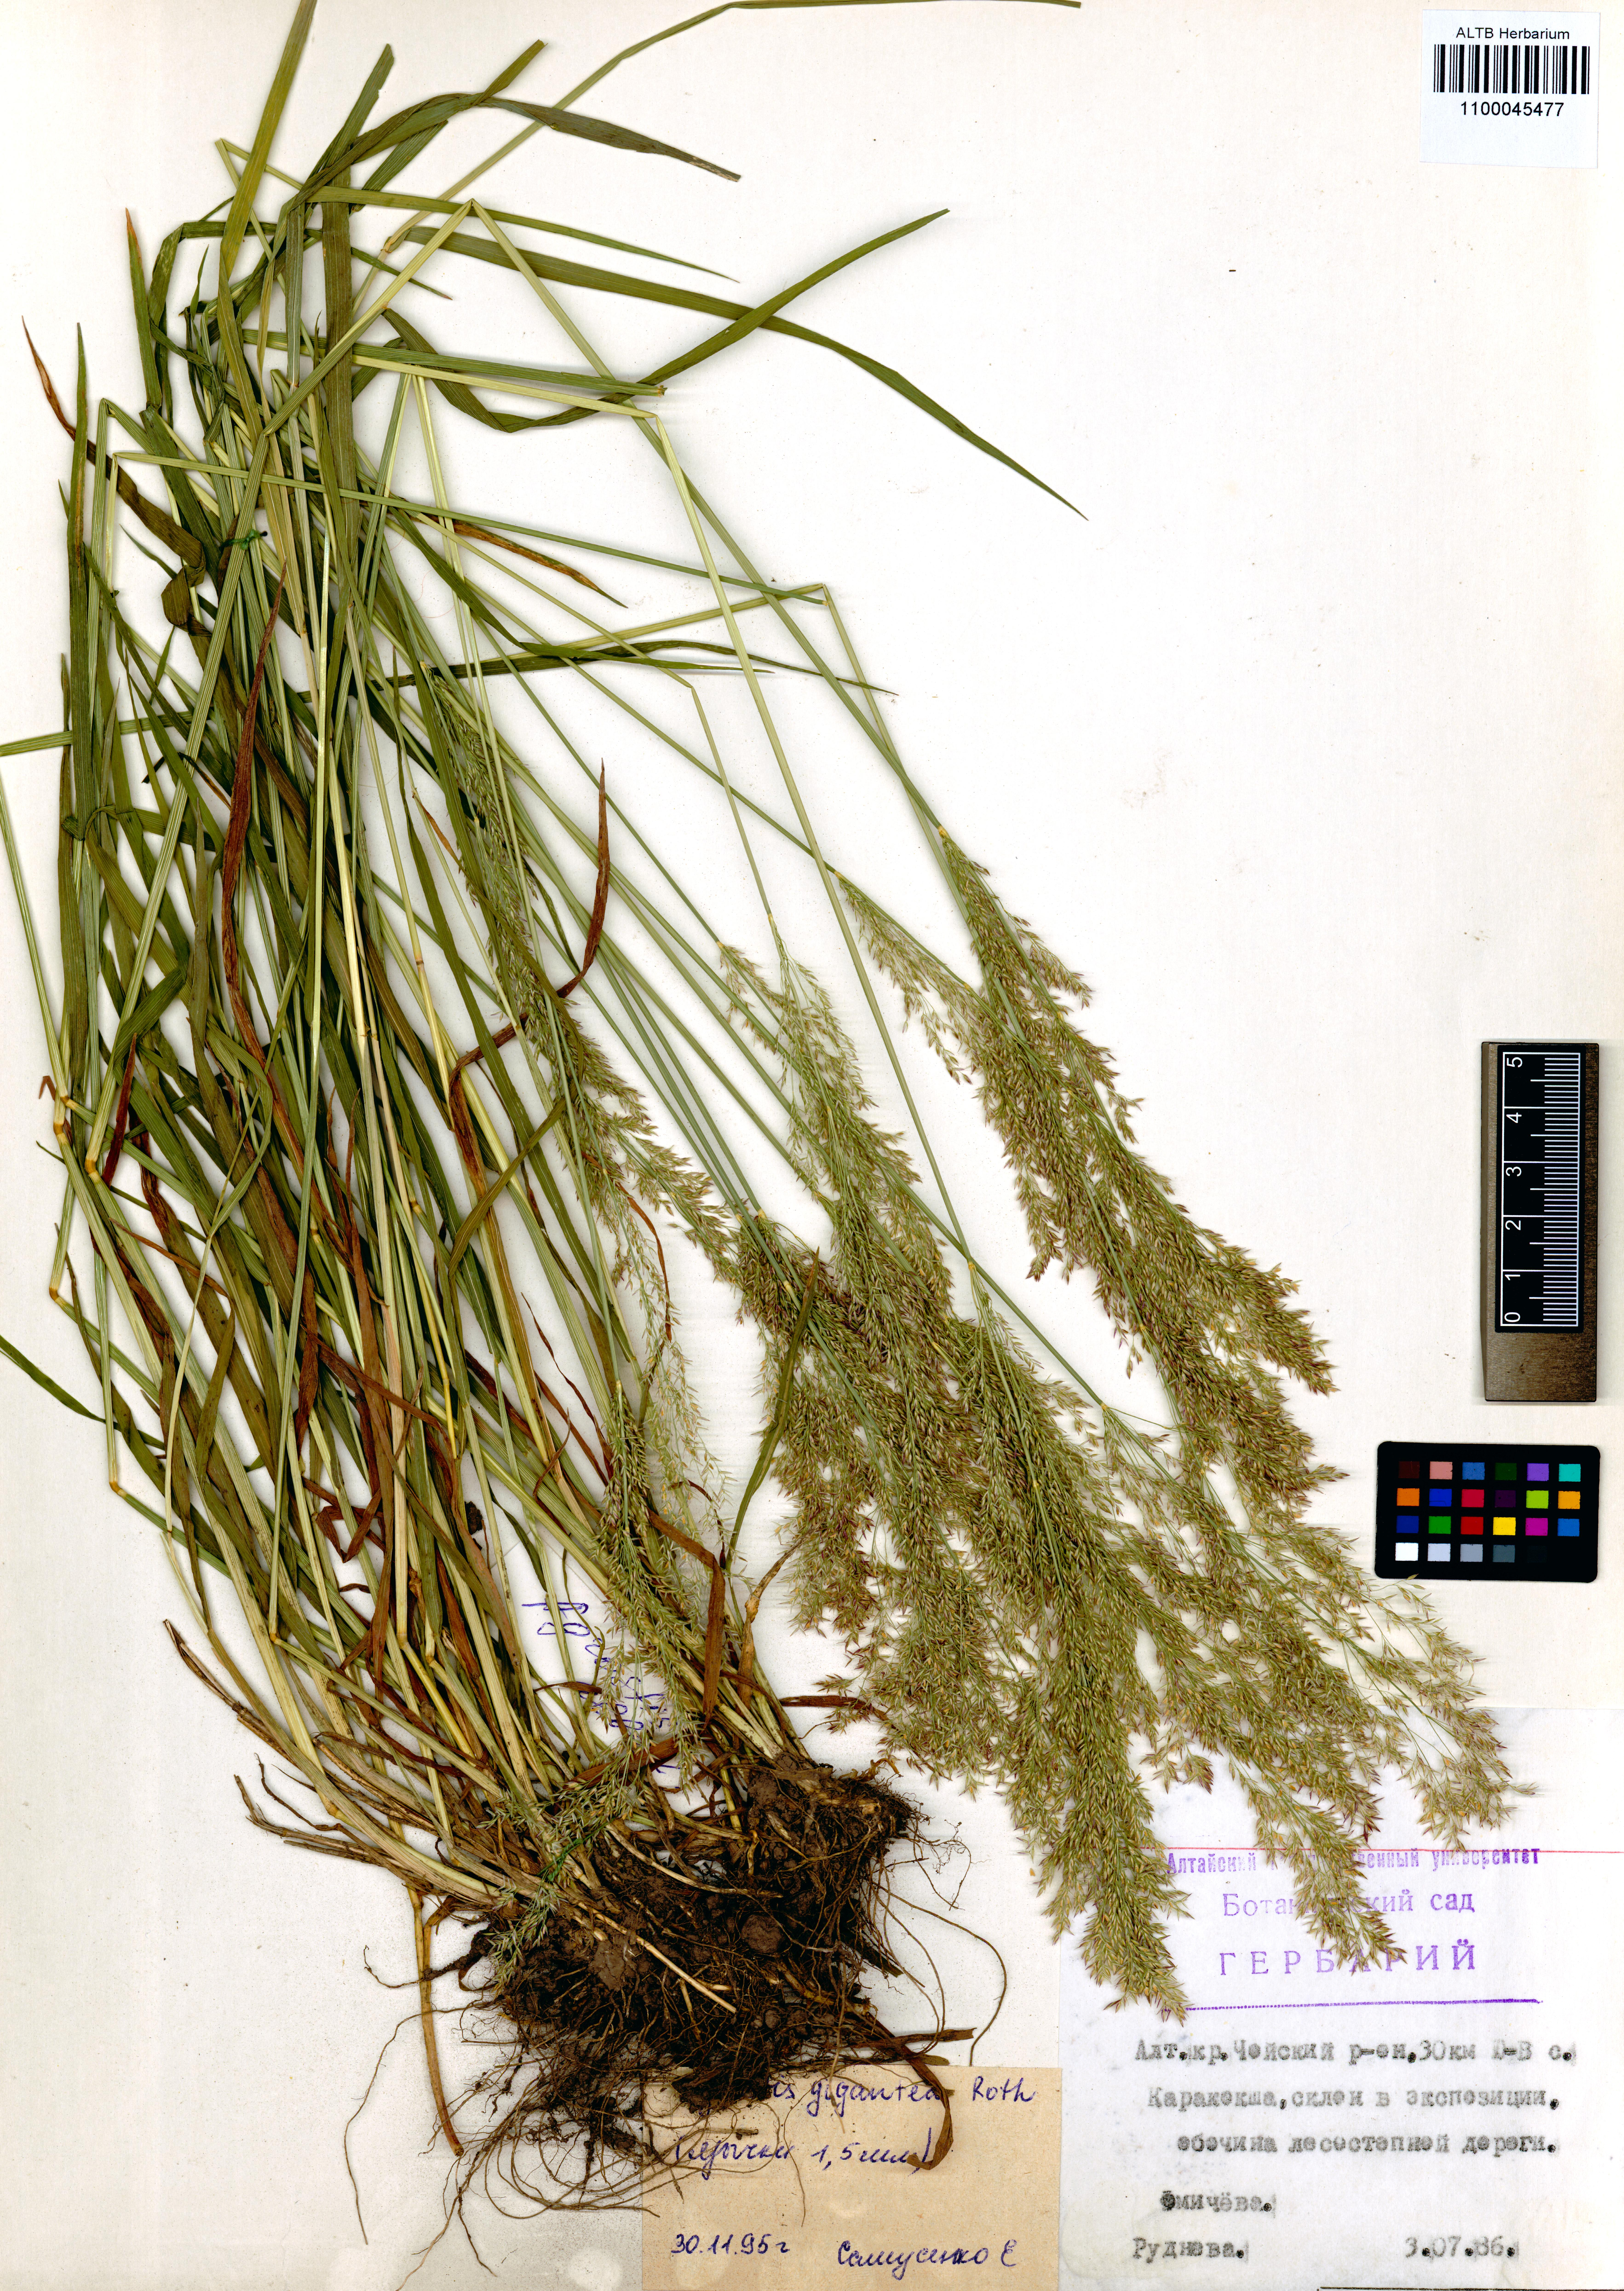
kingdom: Plantae
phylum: Tracheophyta
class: Liliopsida
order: Poales
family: Poaceae
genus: Agrostis
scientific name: Agrostis gigantea
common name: Black bent
